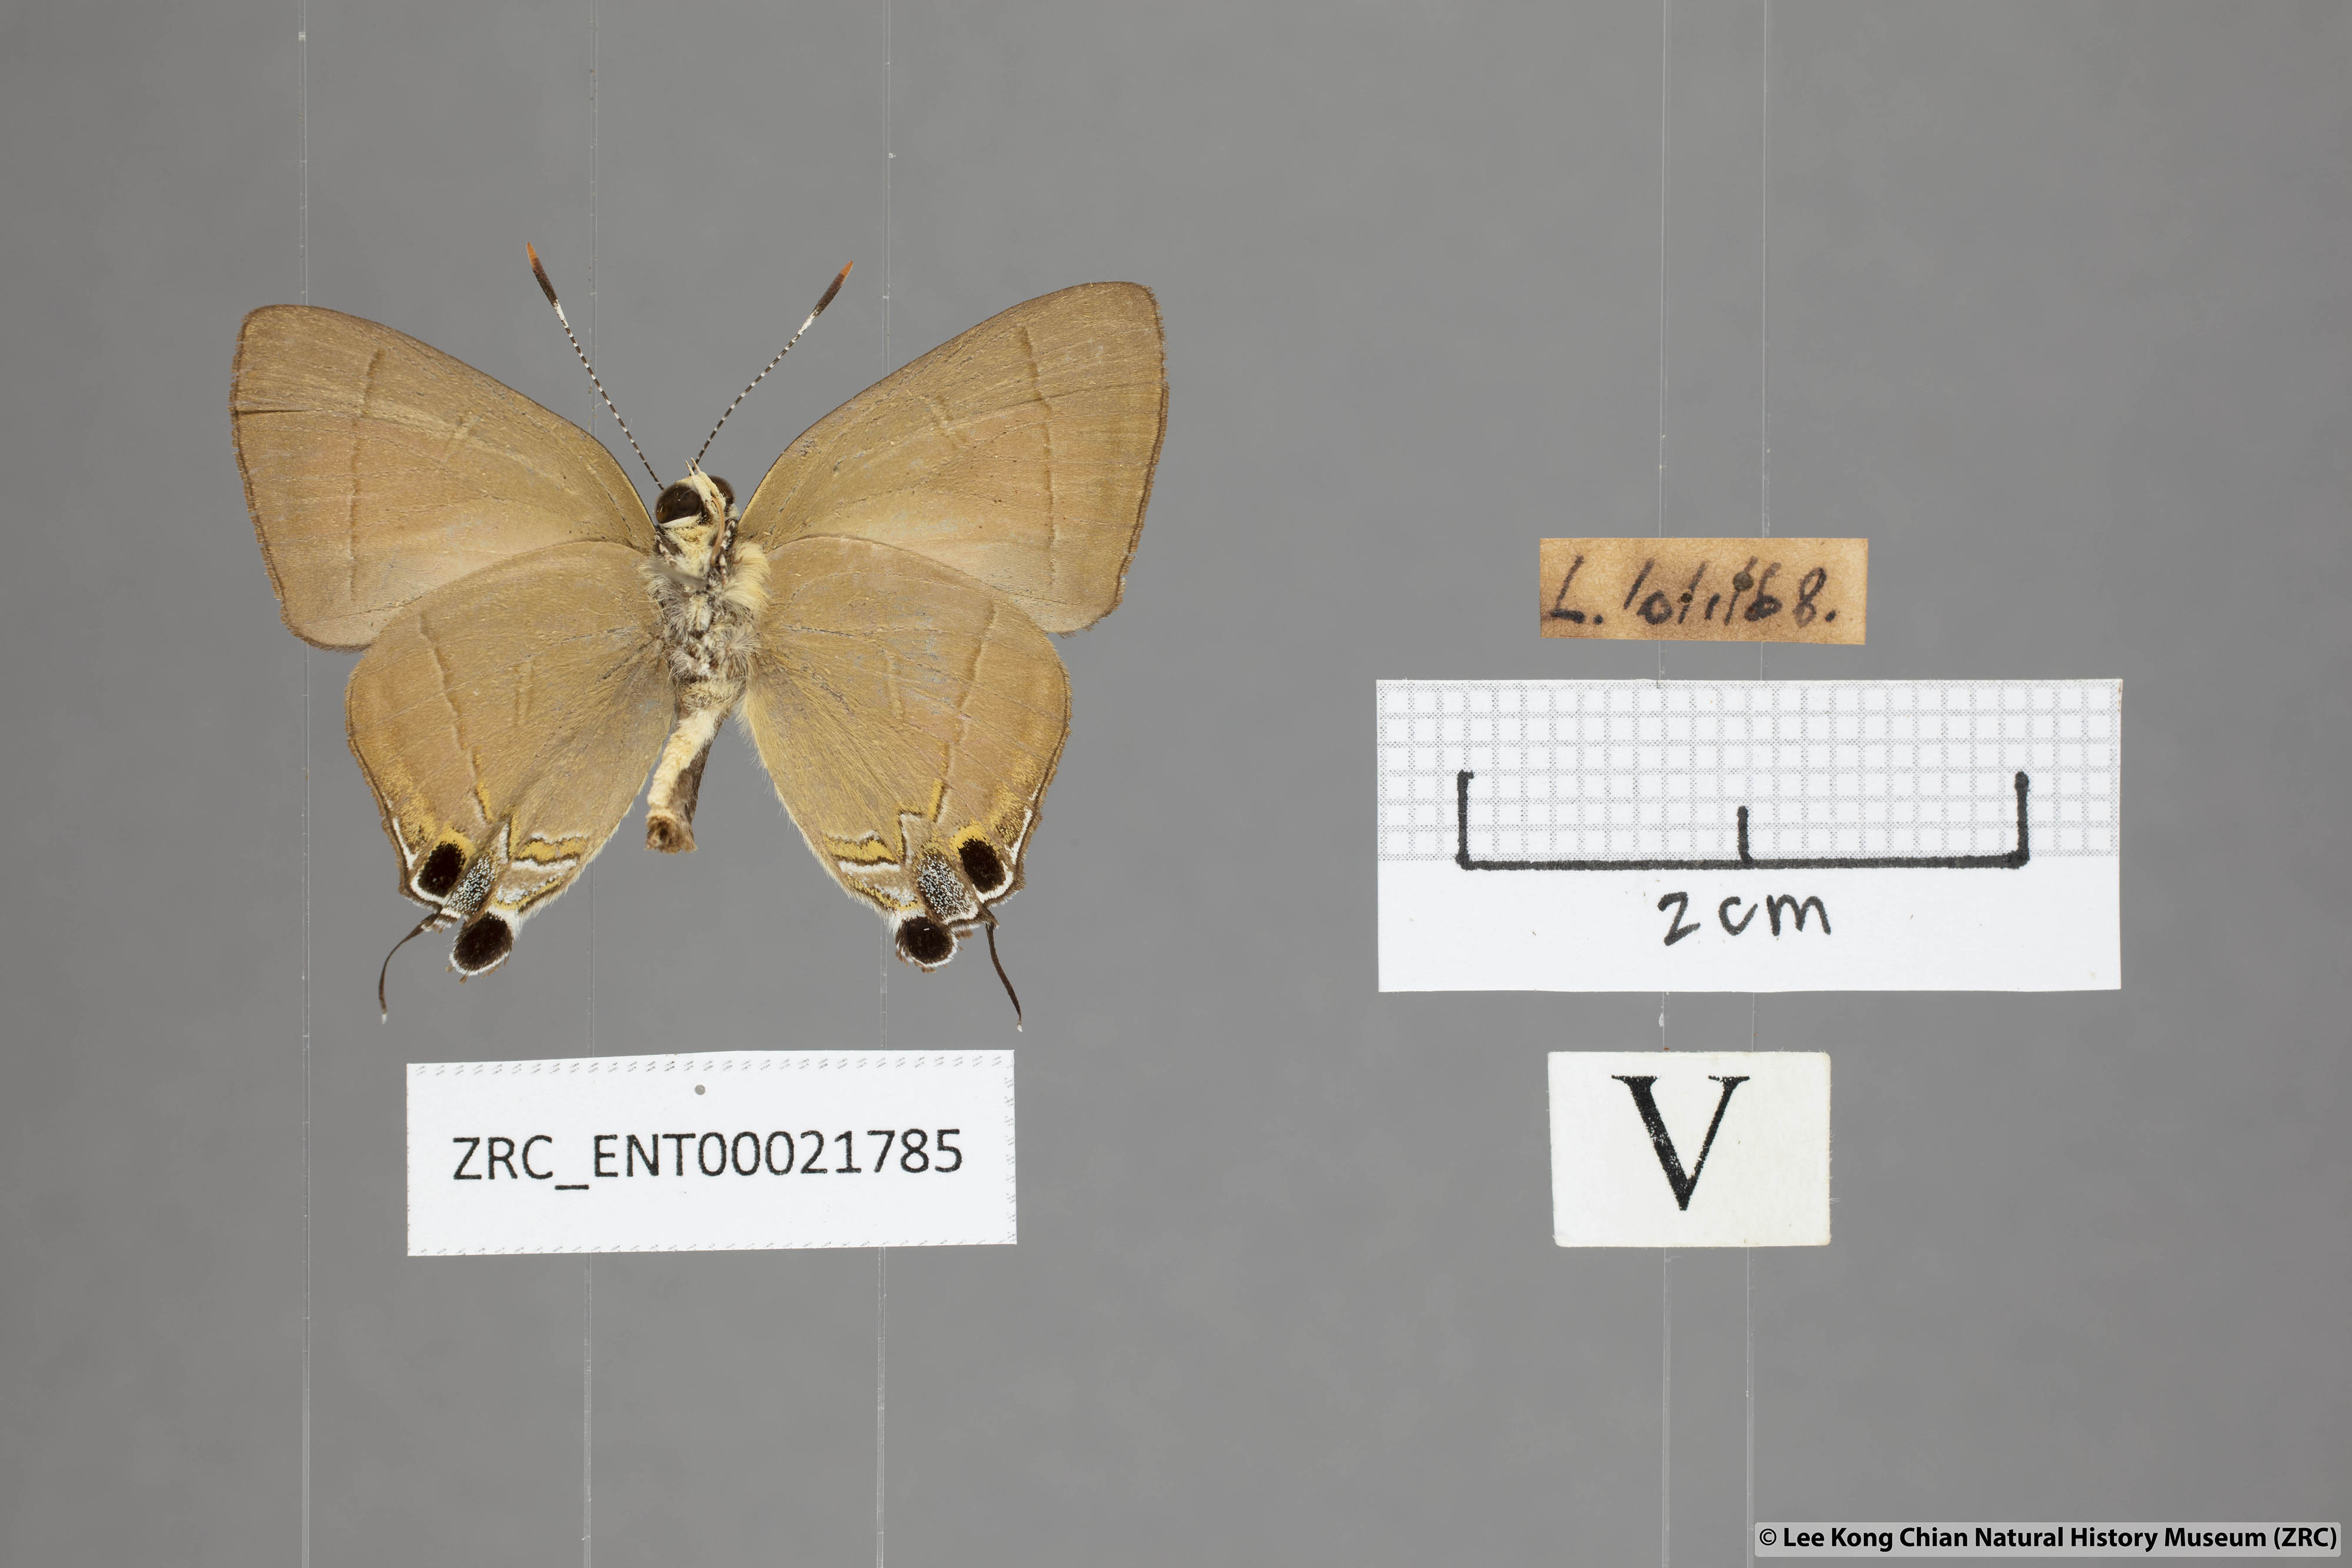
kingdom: Animalia
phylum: Arthropoda
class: Insecta
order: Lepidoptera
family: Lycaenidae
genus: Rapala
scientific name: Rapala dieneces
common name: Scarlet flash
